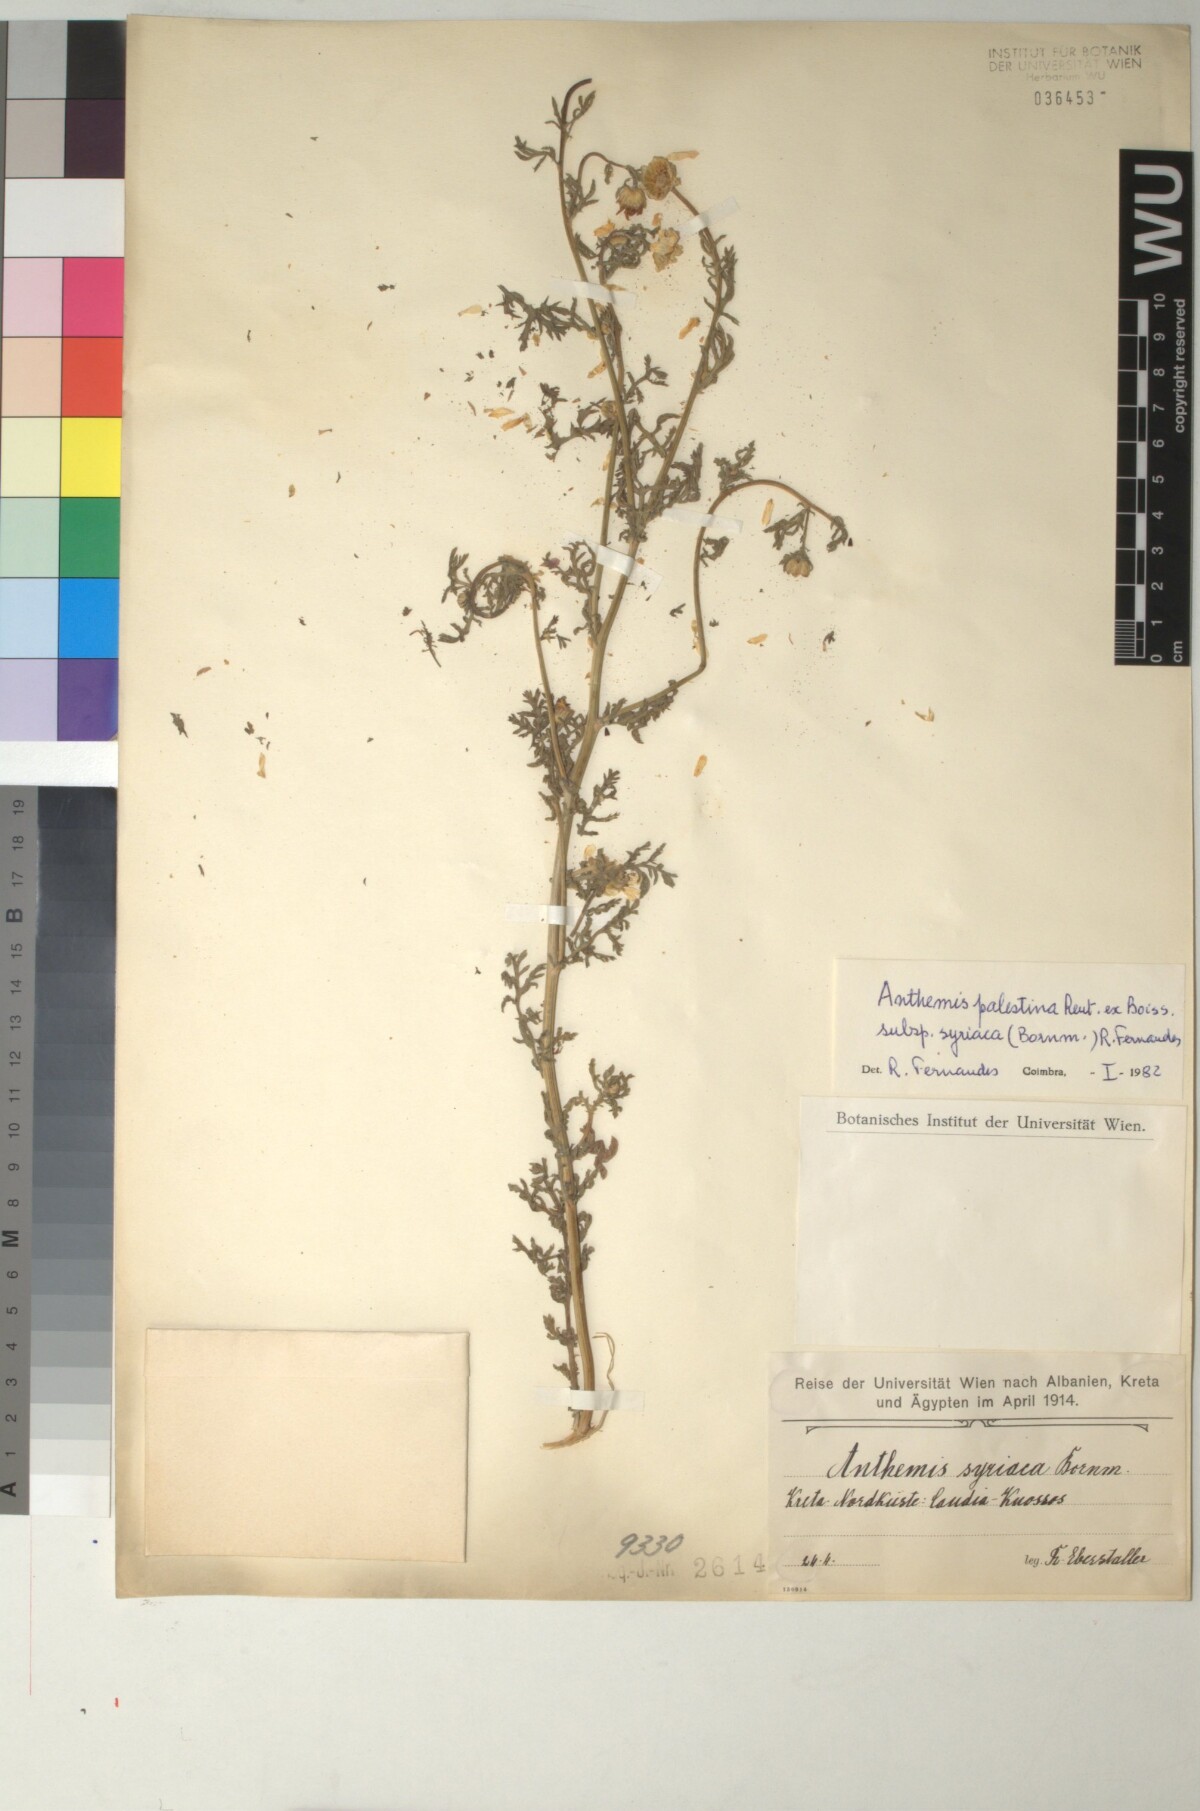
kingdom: Plantae
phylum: Tracheophyta
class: Magnoliopsida
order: Asterales
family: Asteraceae
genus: Cota
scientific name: Cota palaestina
